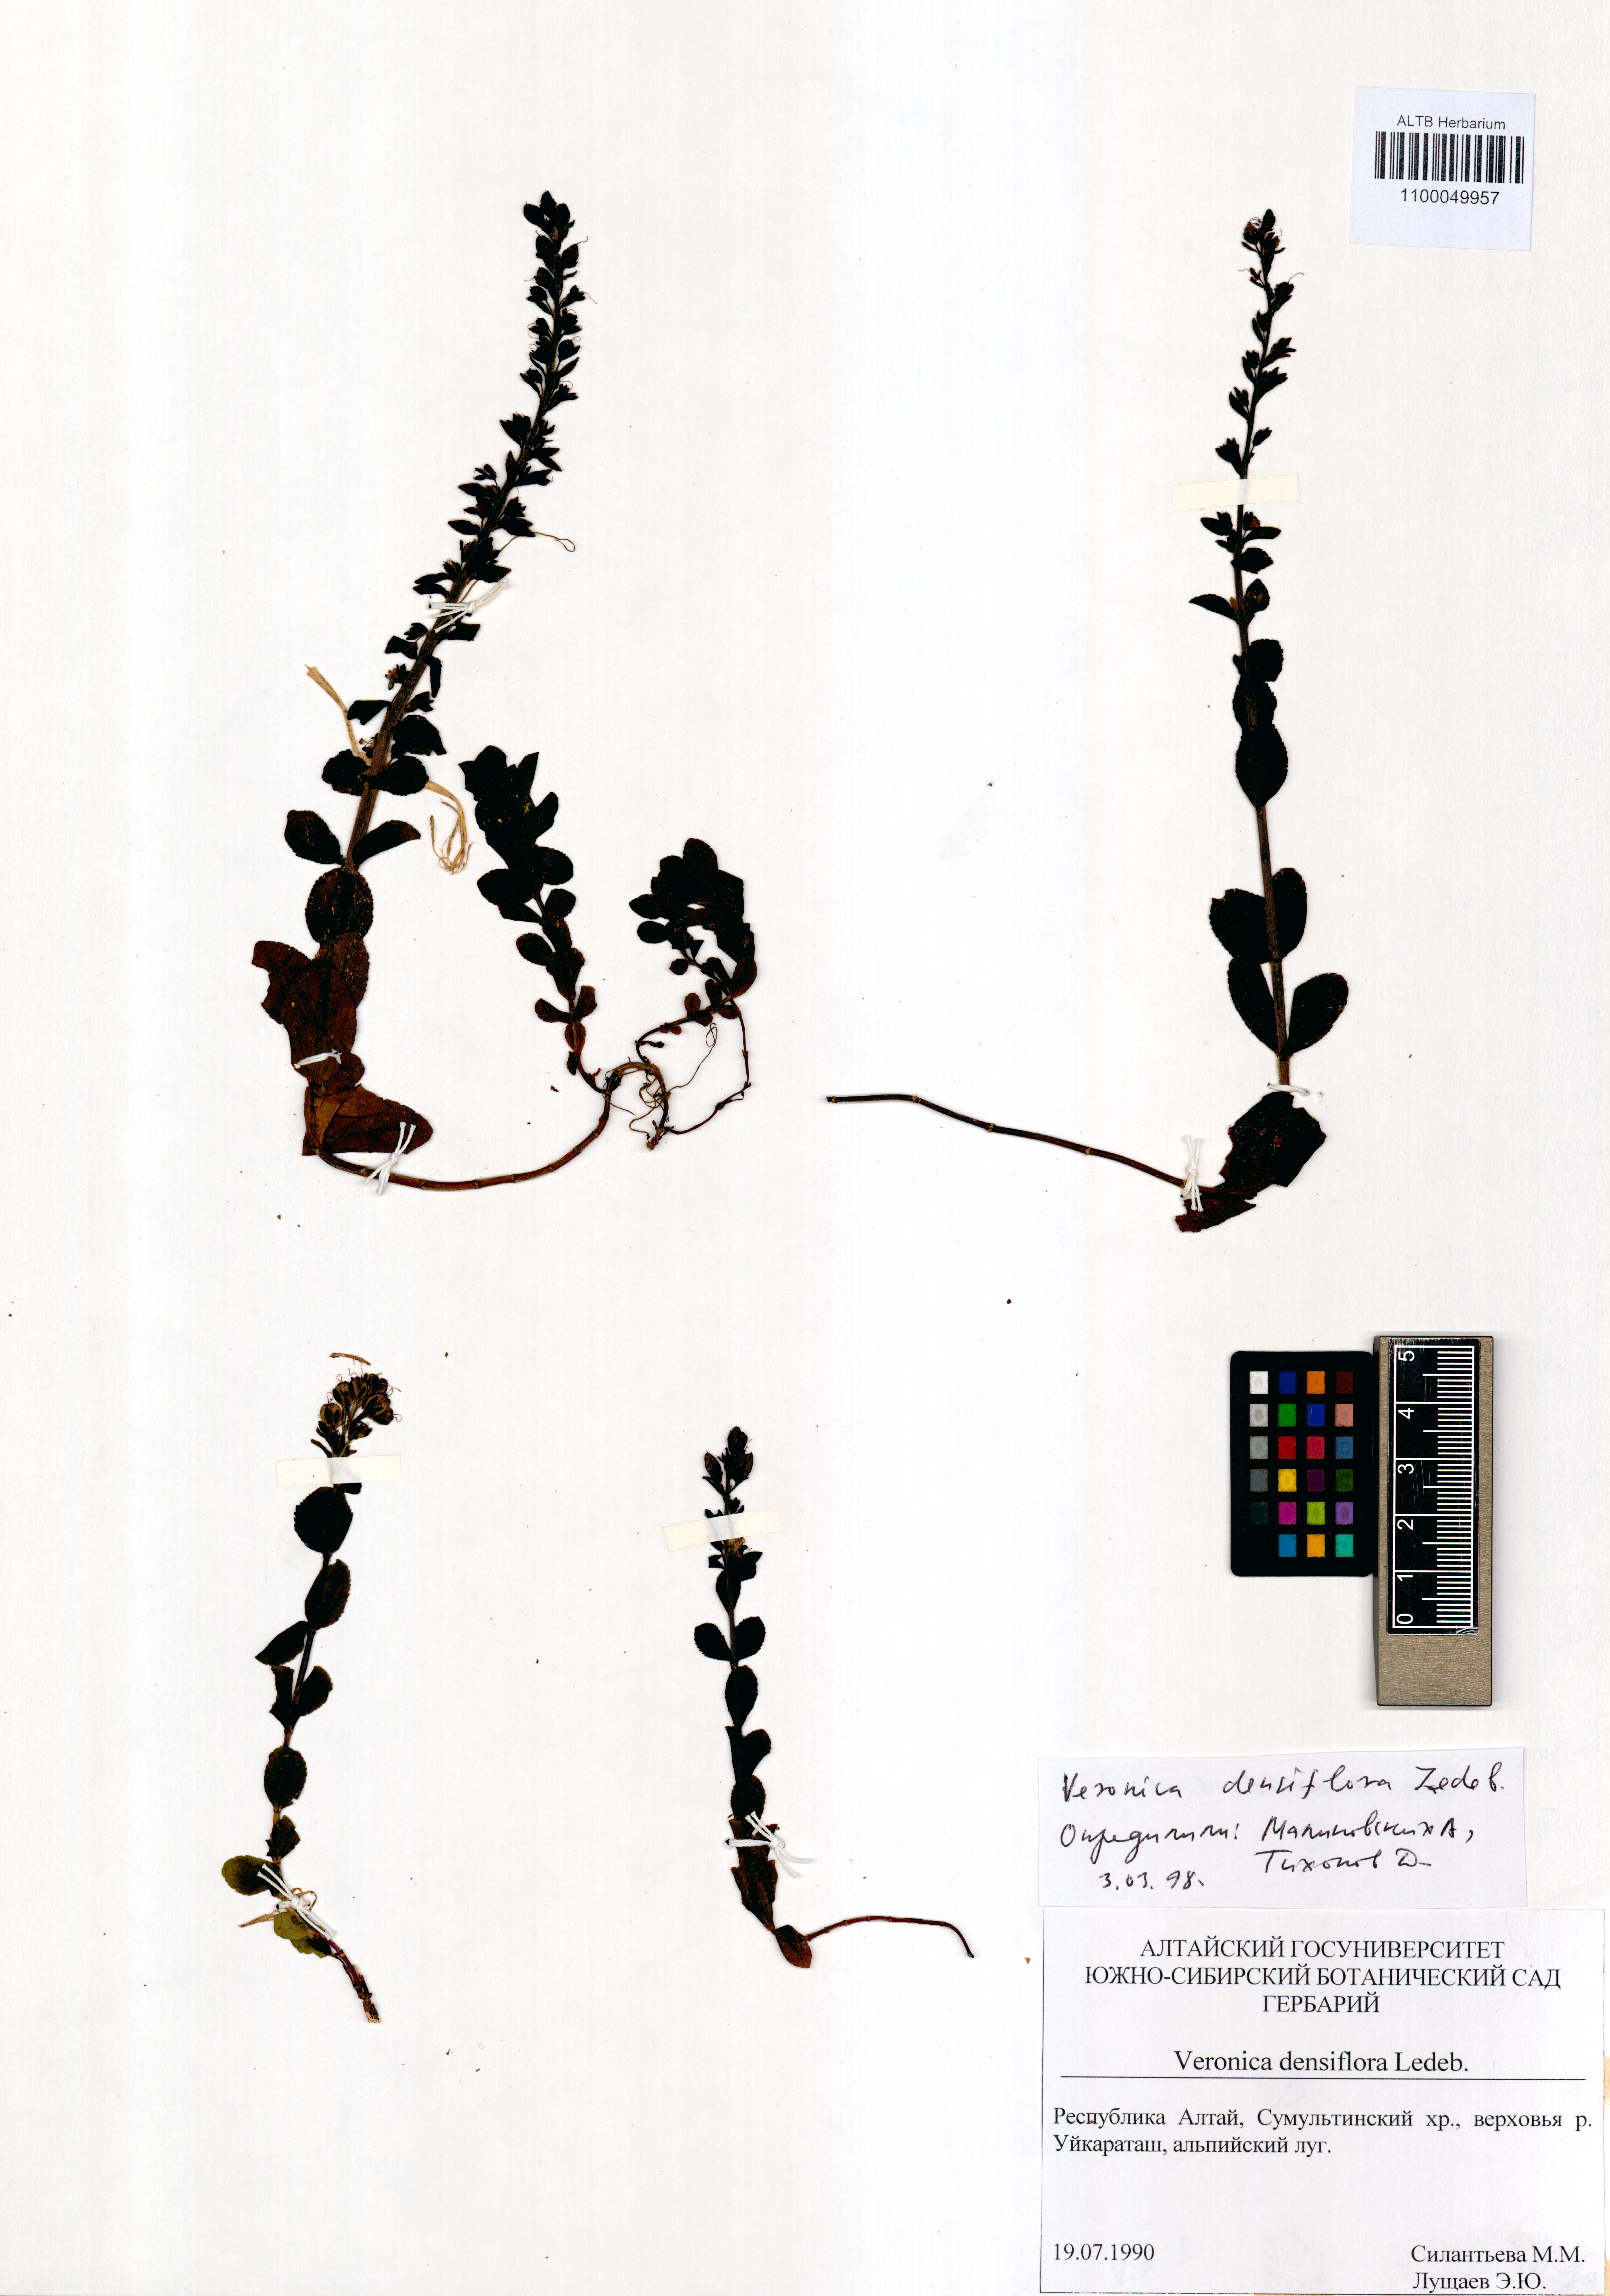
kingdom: Plantae
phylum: Tracheophyta
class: Magnoliopsida
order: Lamiales
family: Plantaginaceae
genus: Veronica
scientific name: Veronica densiflora
